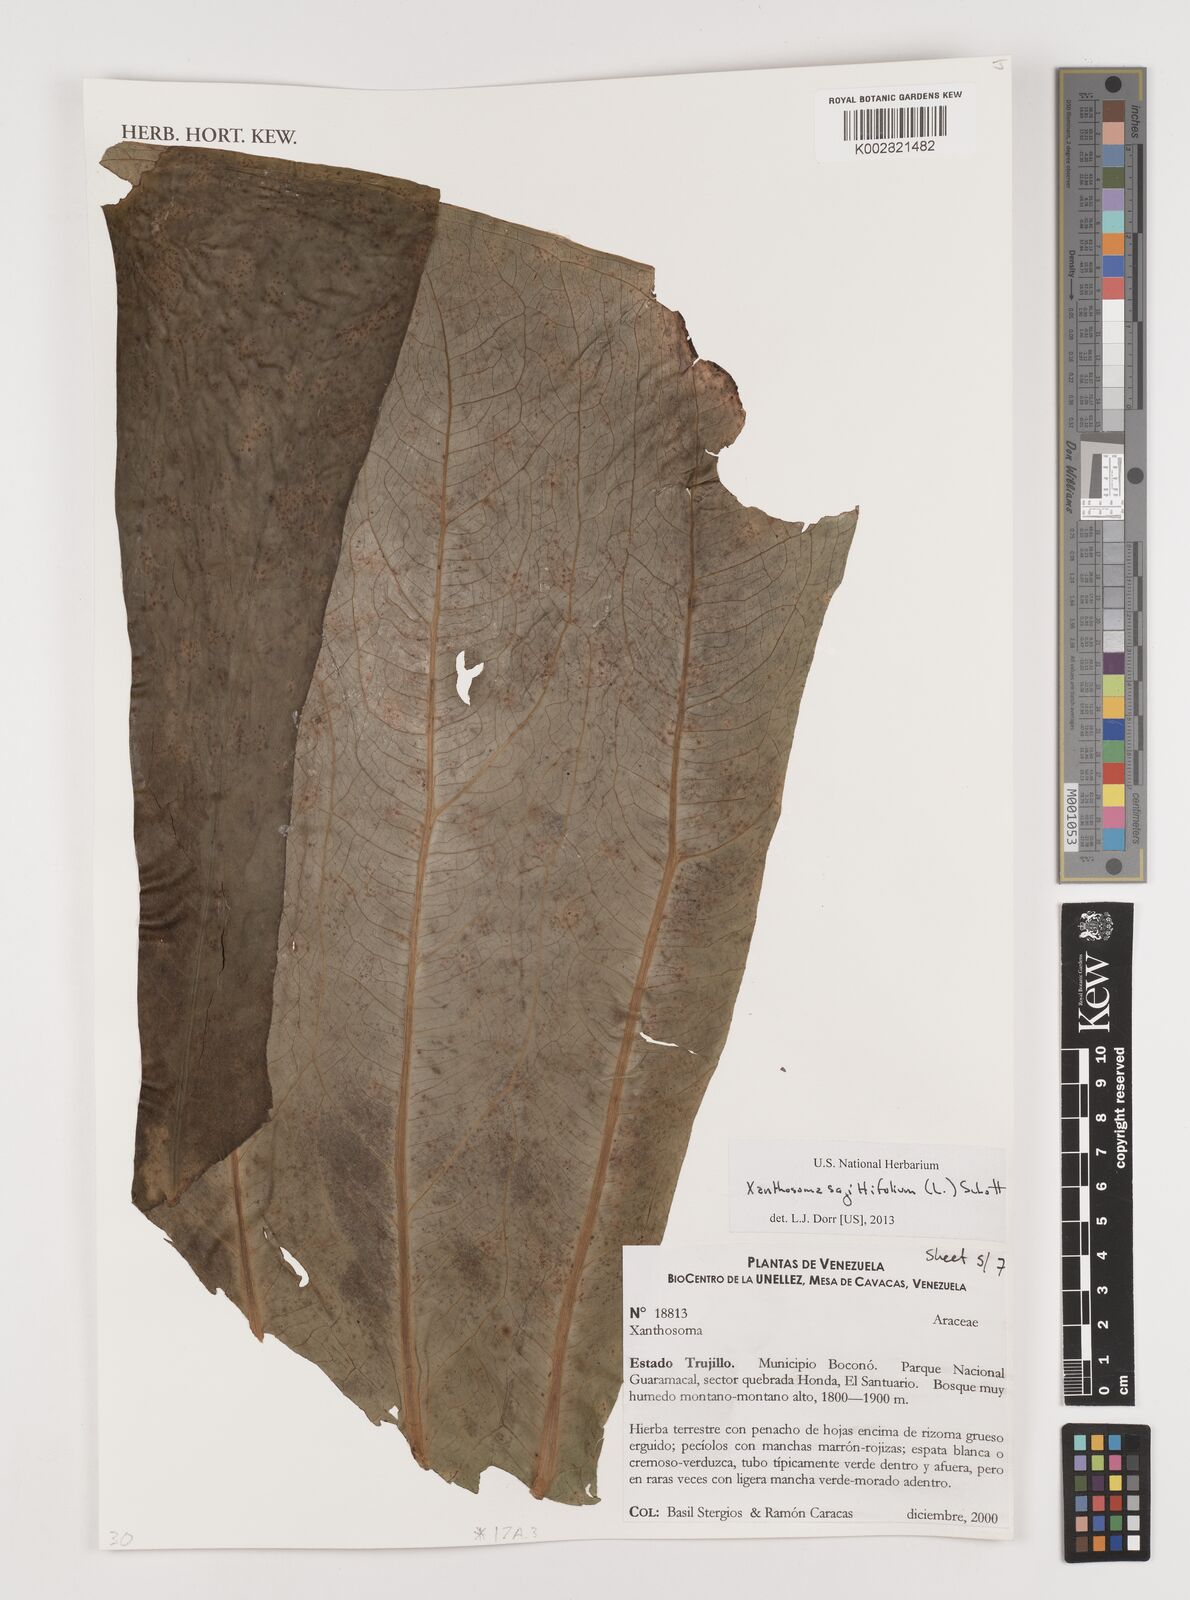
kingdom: Plantae
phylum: Tracheophyta
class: Liliopsida
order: Alismatales
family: Araceae
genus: Xanthosoma
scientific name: Xanthosoma sagittifolium
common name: Arrowleaf elephant's ear
